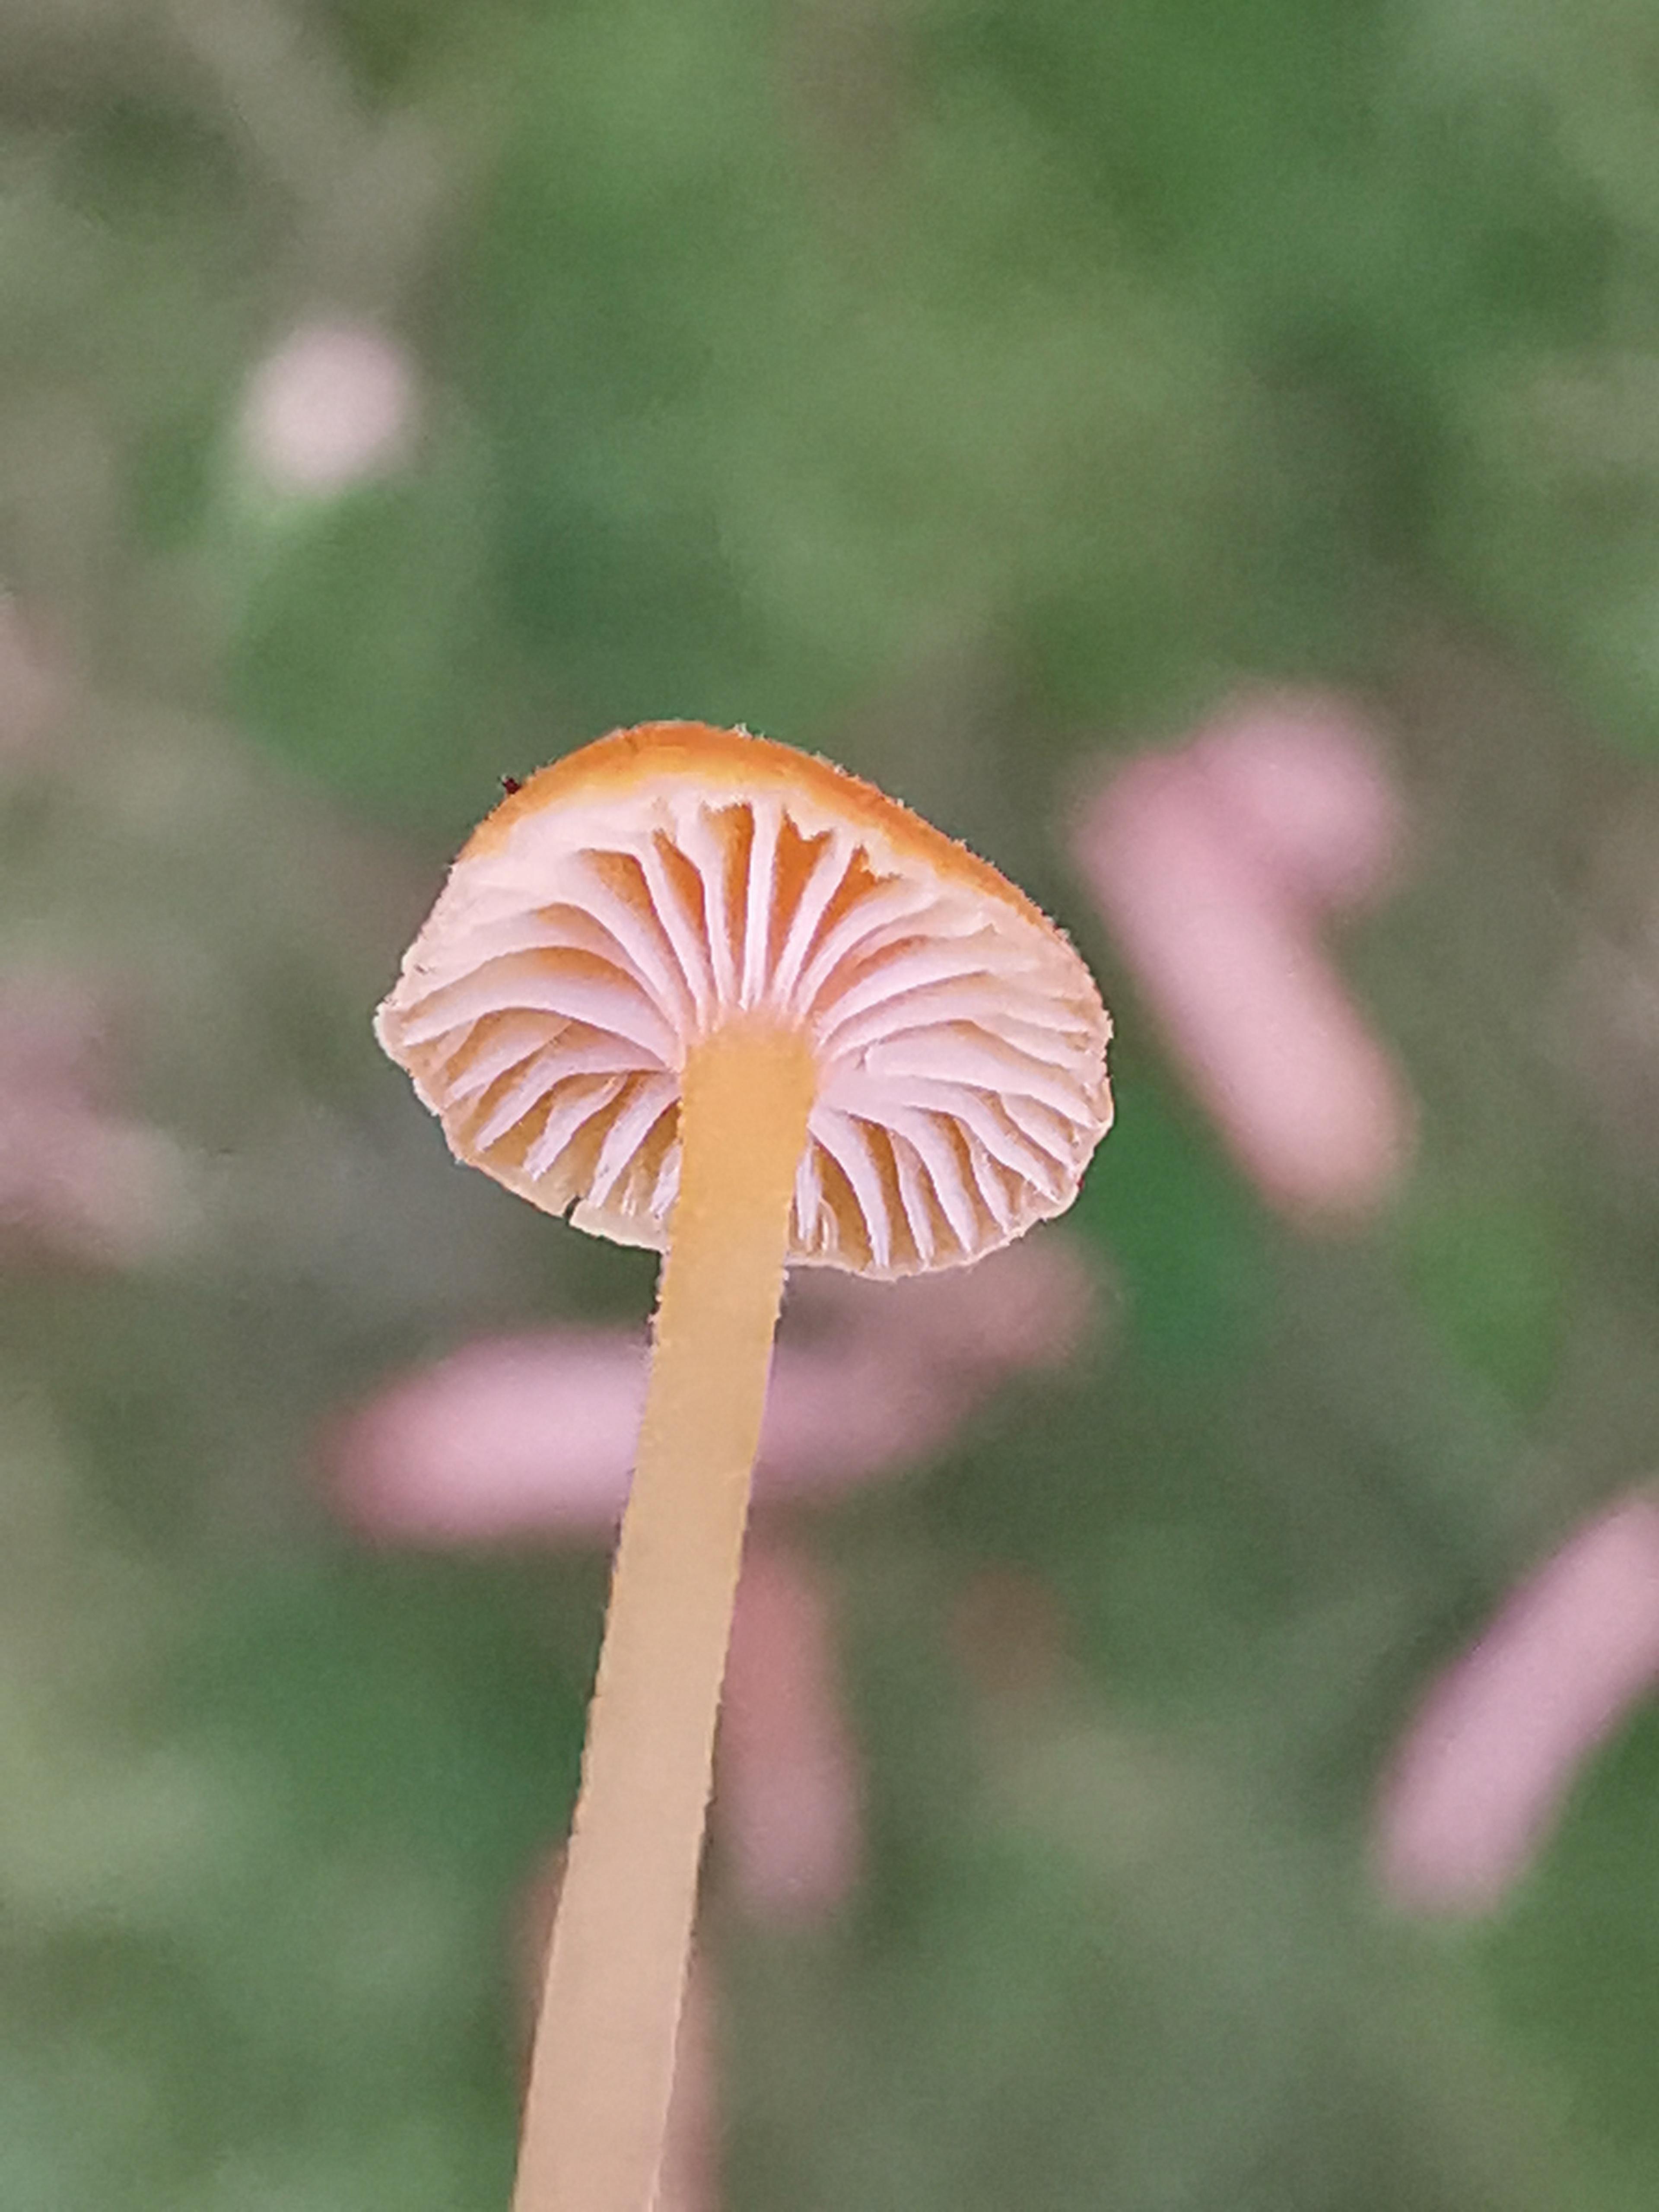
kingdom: Fungi
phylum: Basidiomycota
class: Agaricomycetes
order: Hymenochaetales
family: Rickenellaceae
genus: Rickenella
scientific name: Rickenella fibula
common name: orange mosnavlehat
